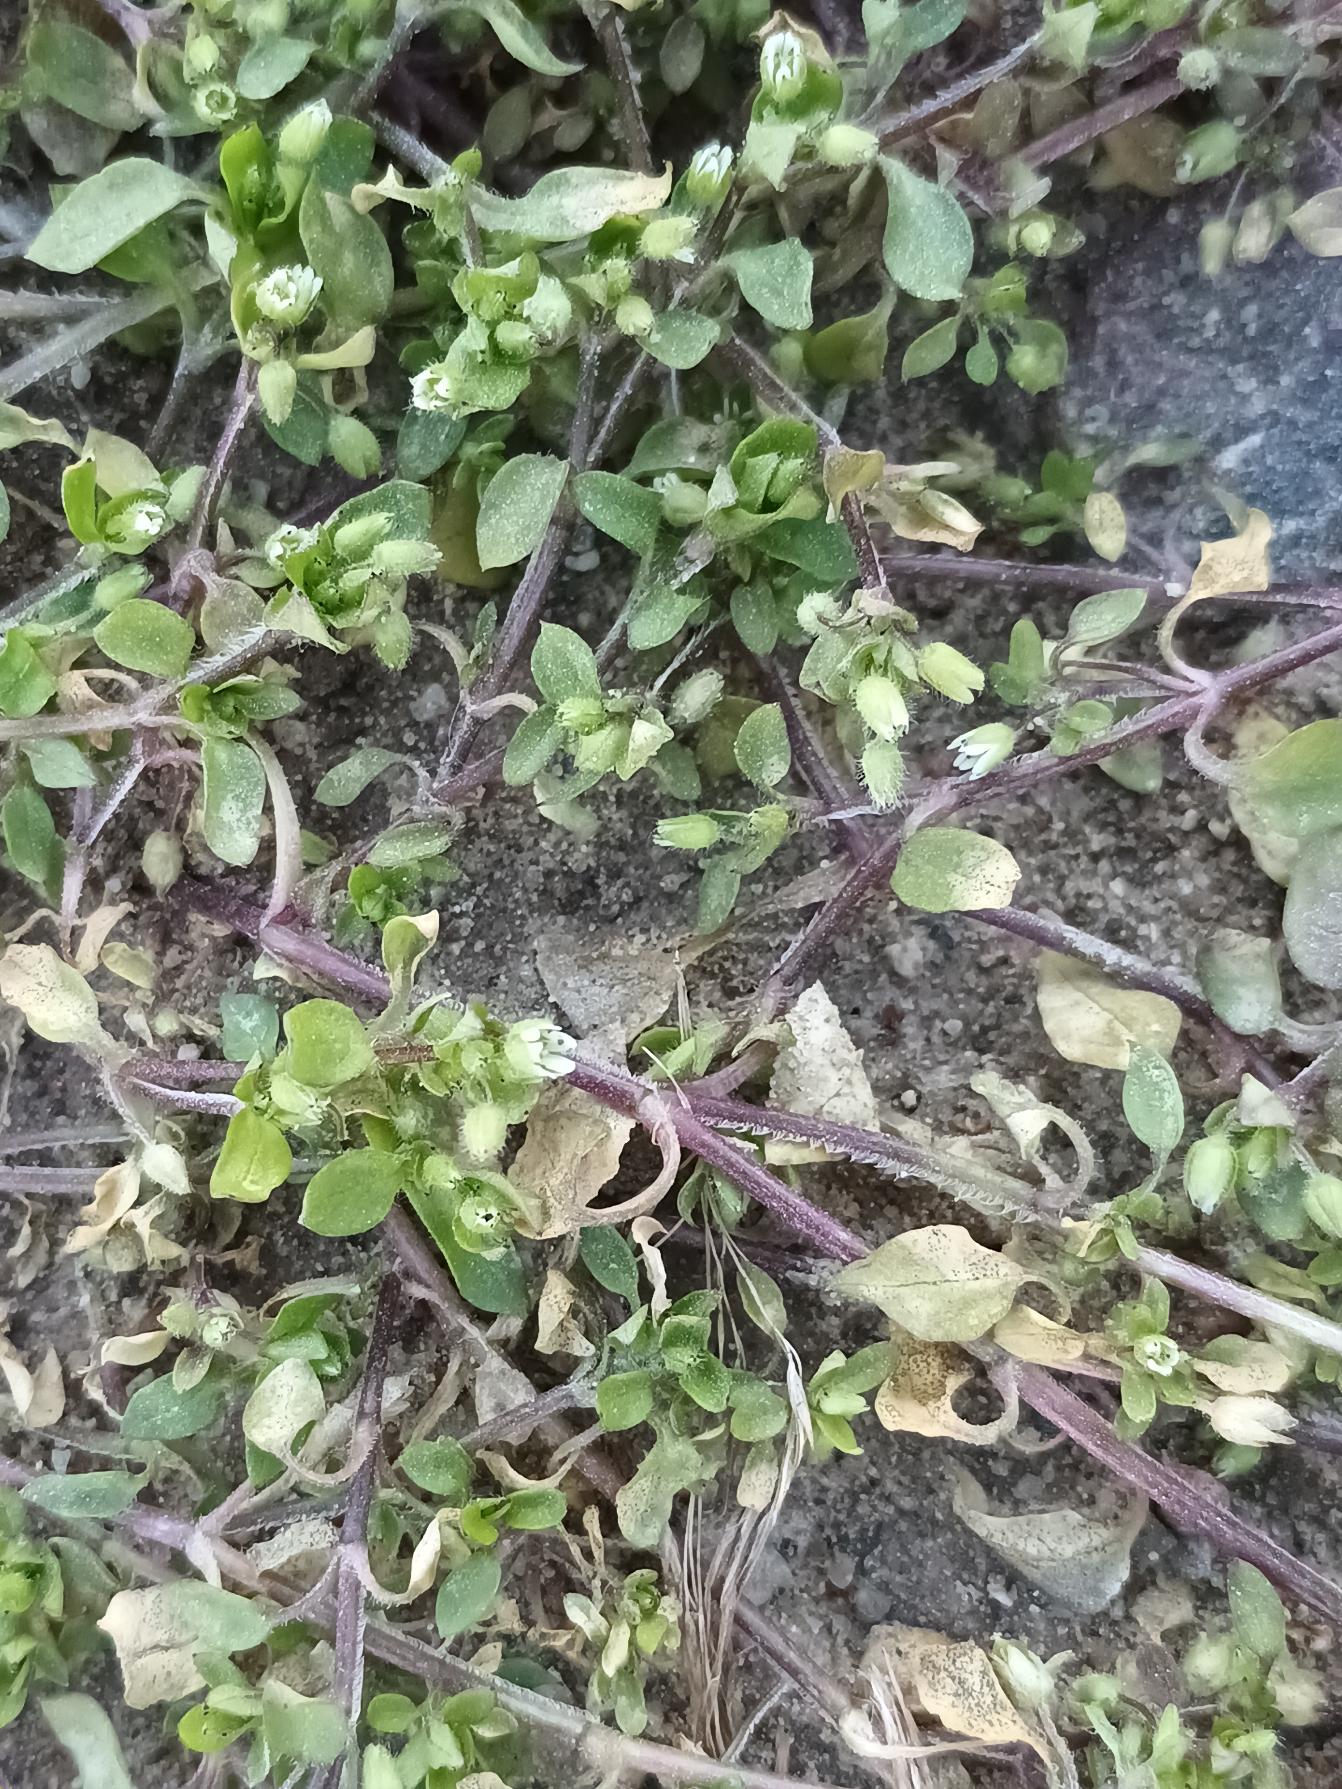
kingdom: Plantae
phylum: Tracheophyta
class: Magnoliopsida
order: Caryophyllales
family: Caryophyllaceae
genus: Stellaria
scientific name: Stellaria media
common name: Almindelig fuglegræs
